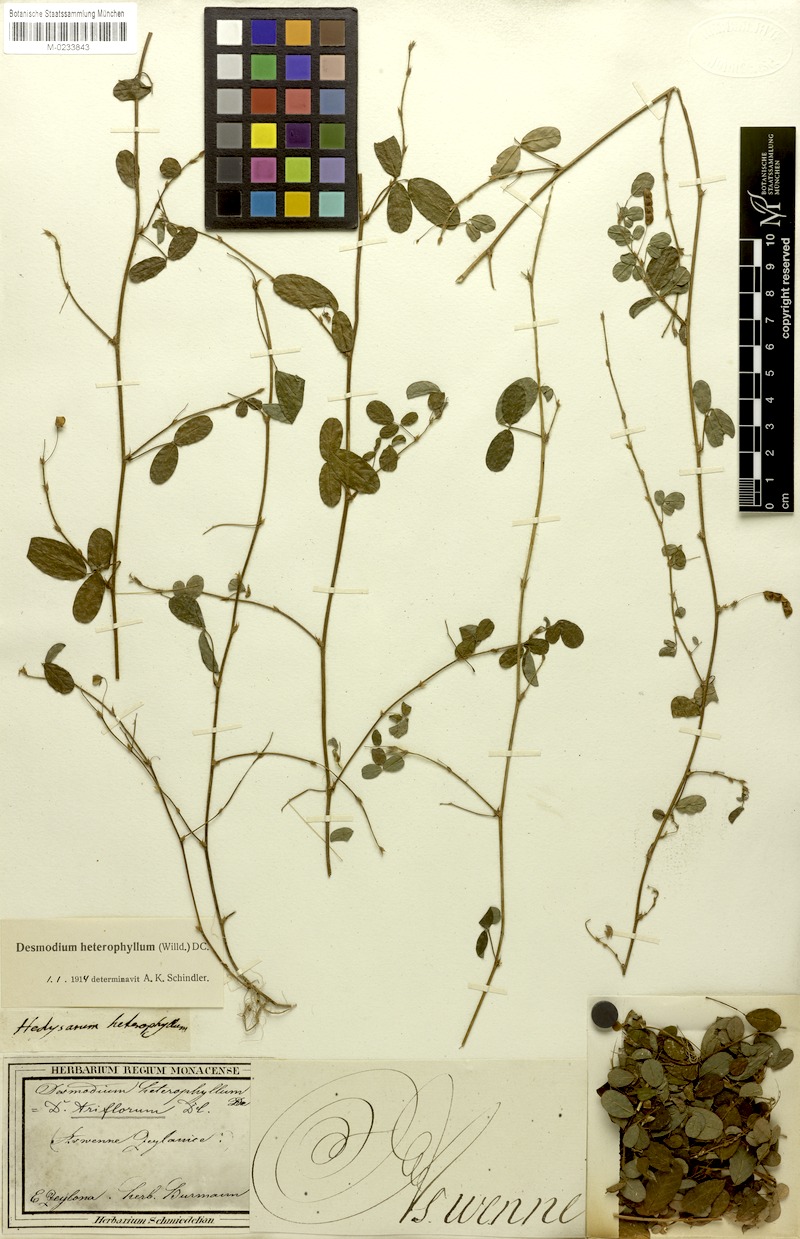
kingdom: Plantae
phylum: Tracheophyta
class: Magnoliopsida
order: Fabales
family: Fabaceae
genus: Grona
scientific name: Grona heterophylla
